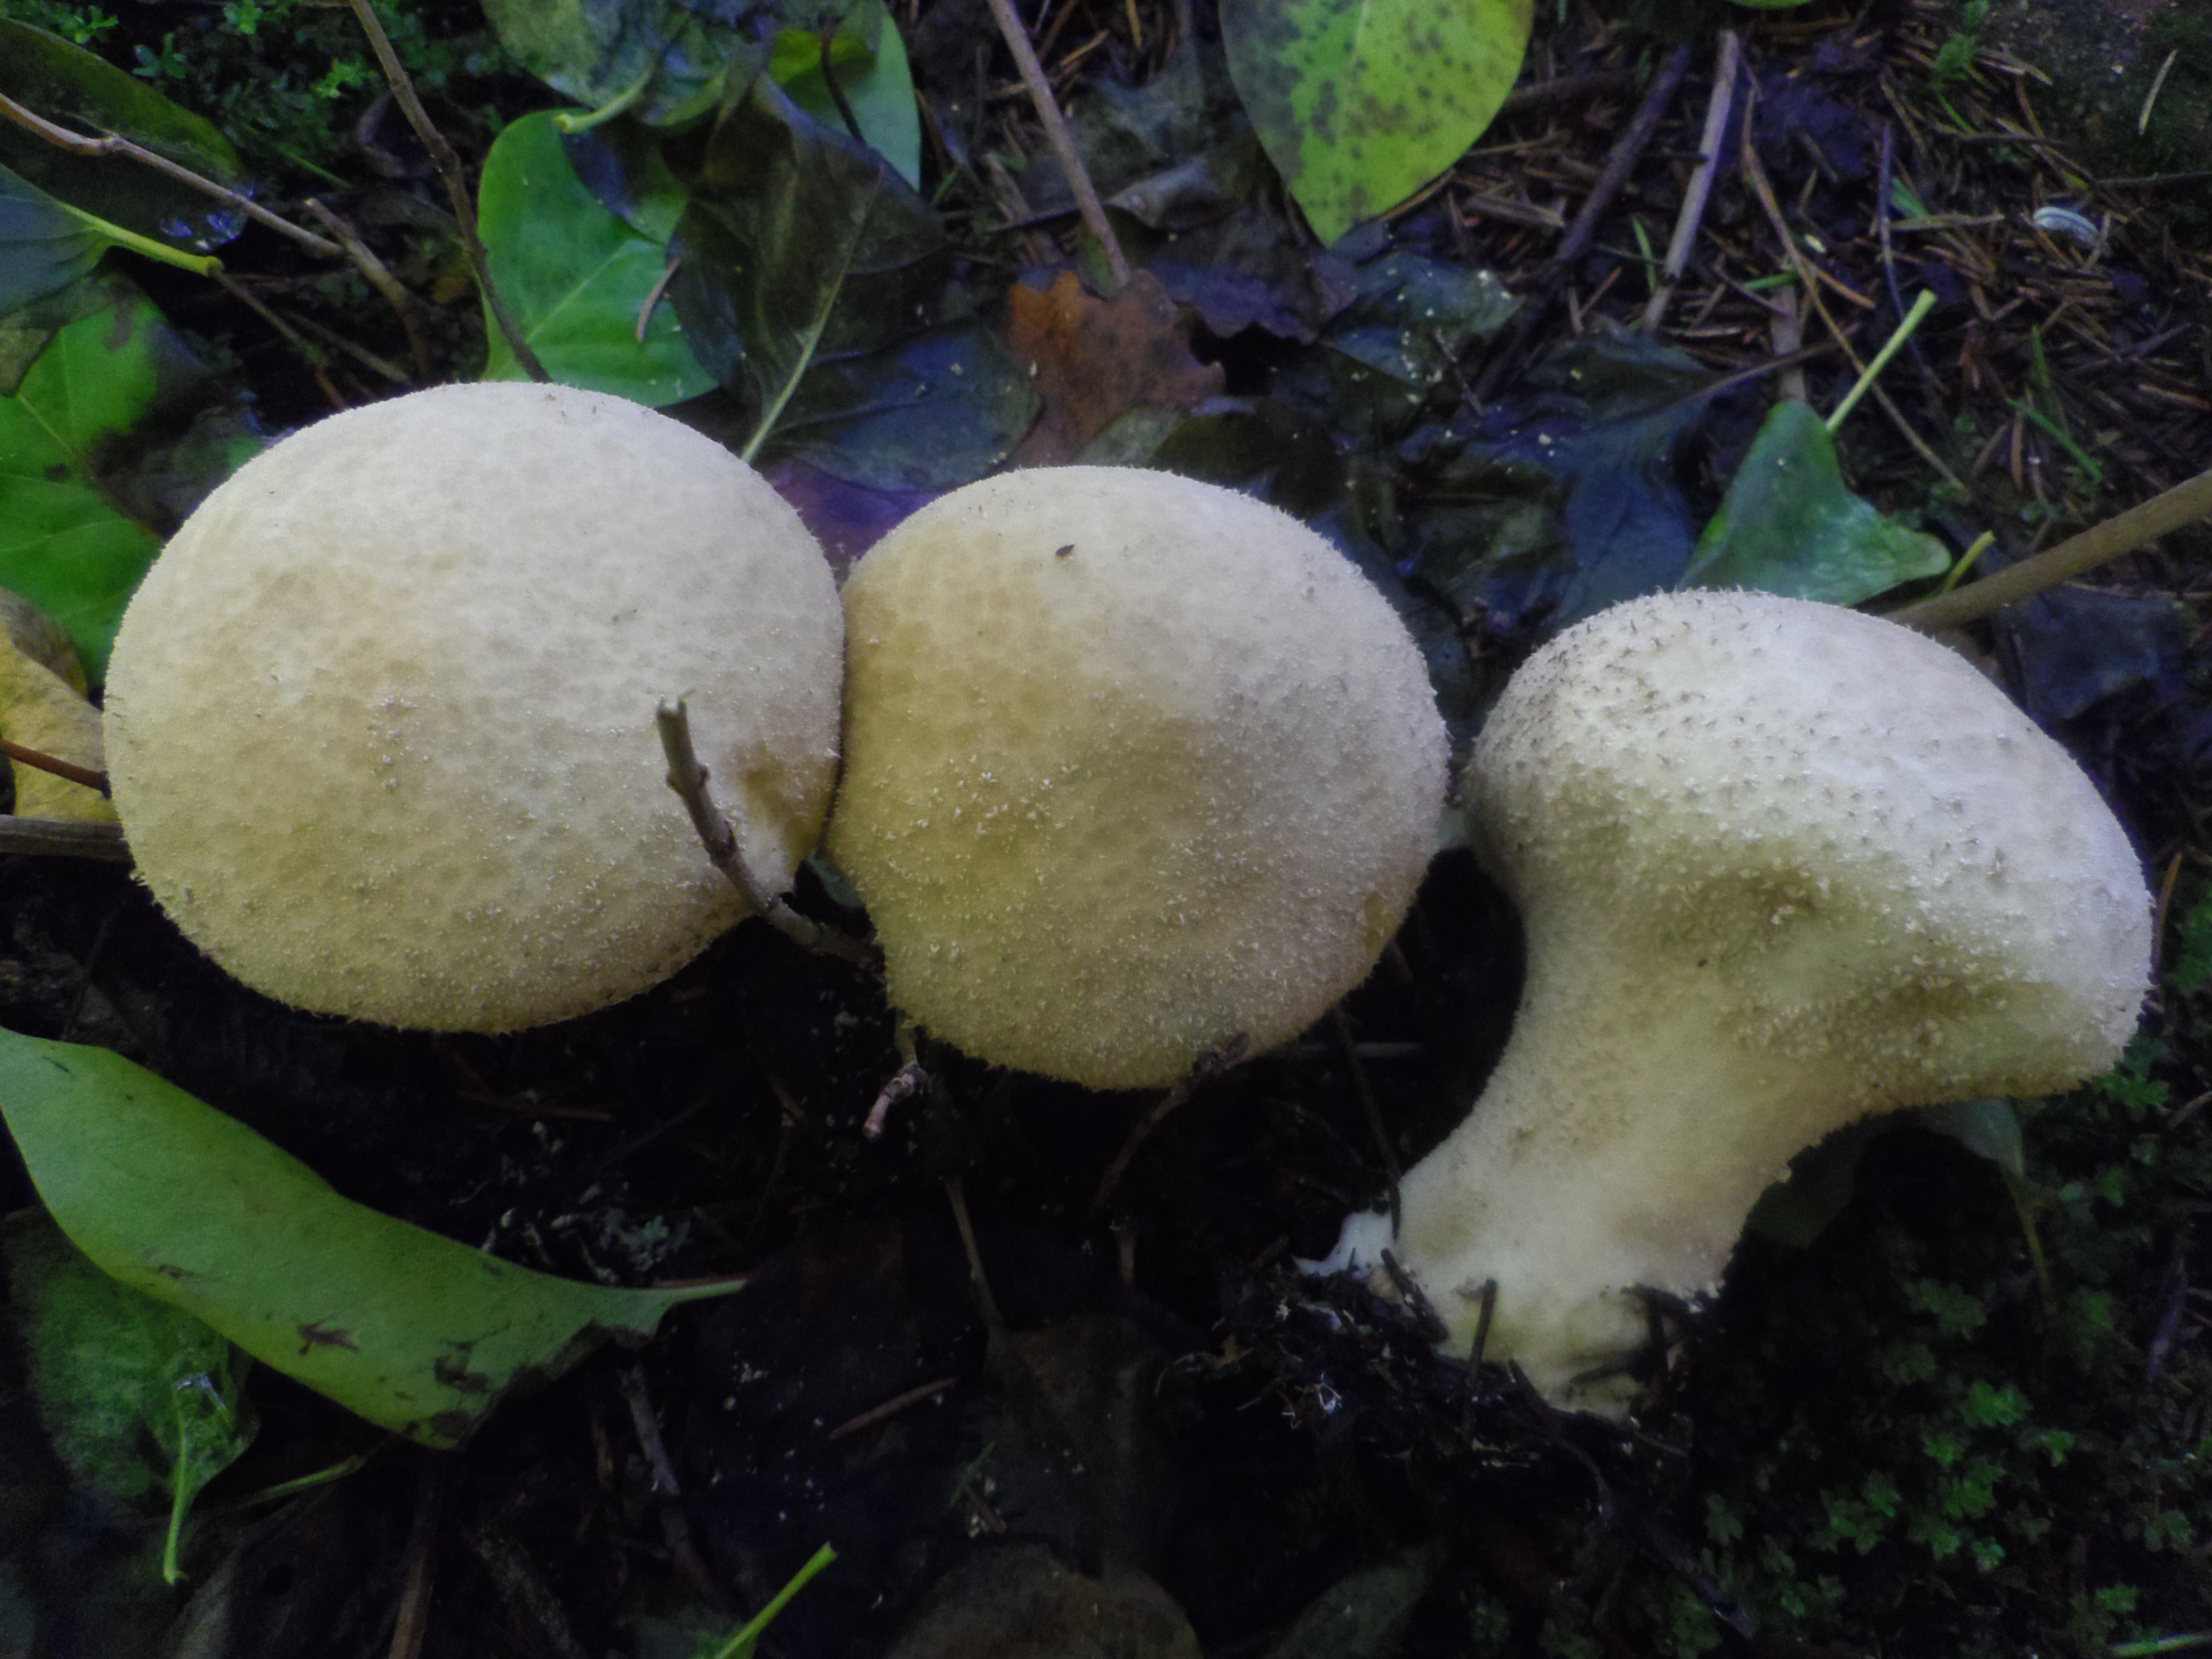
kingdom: Fungi
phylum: Basidiomycota
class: Agaricomycetes
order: Agaricales
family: Agaricaceae
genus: Lycoperdon
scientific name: Lycoperdon excipuliforme
